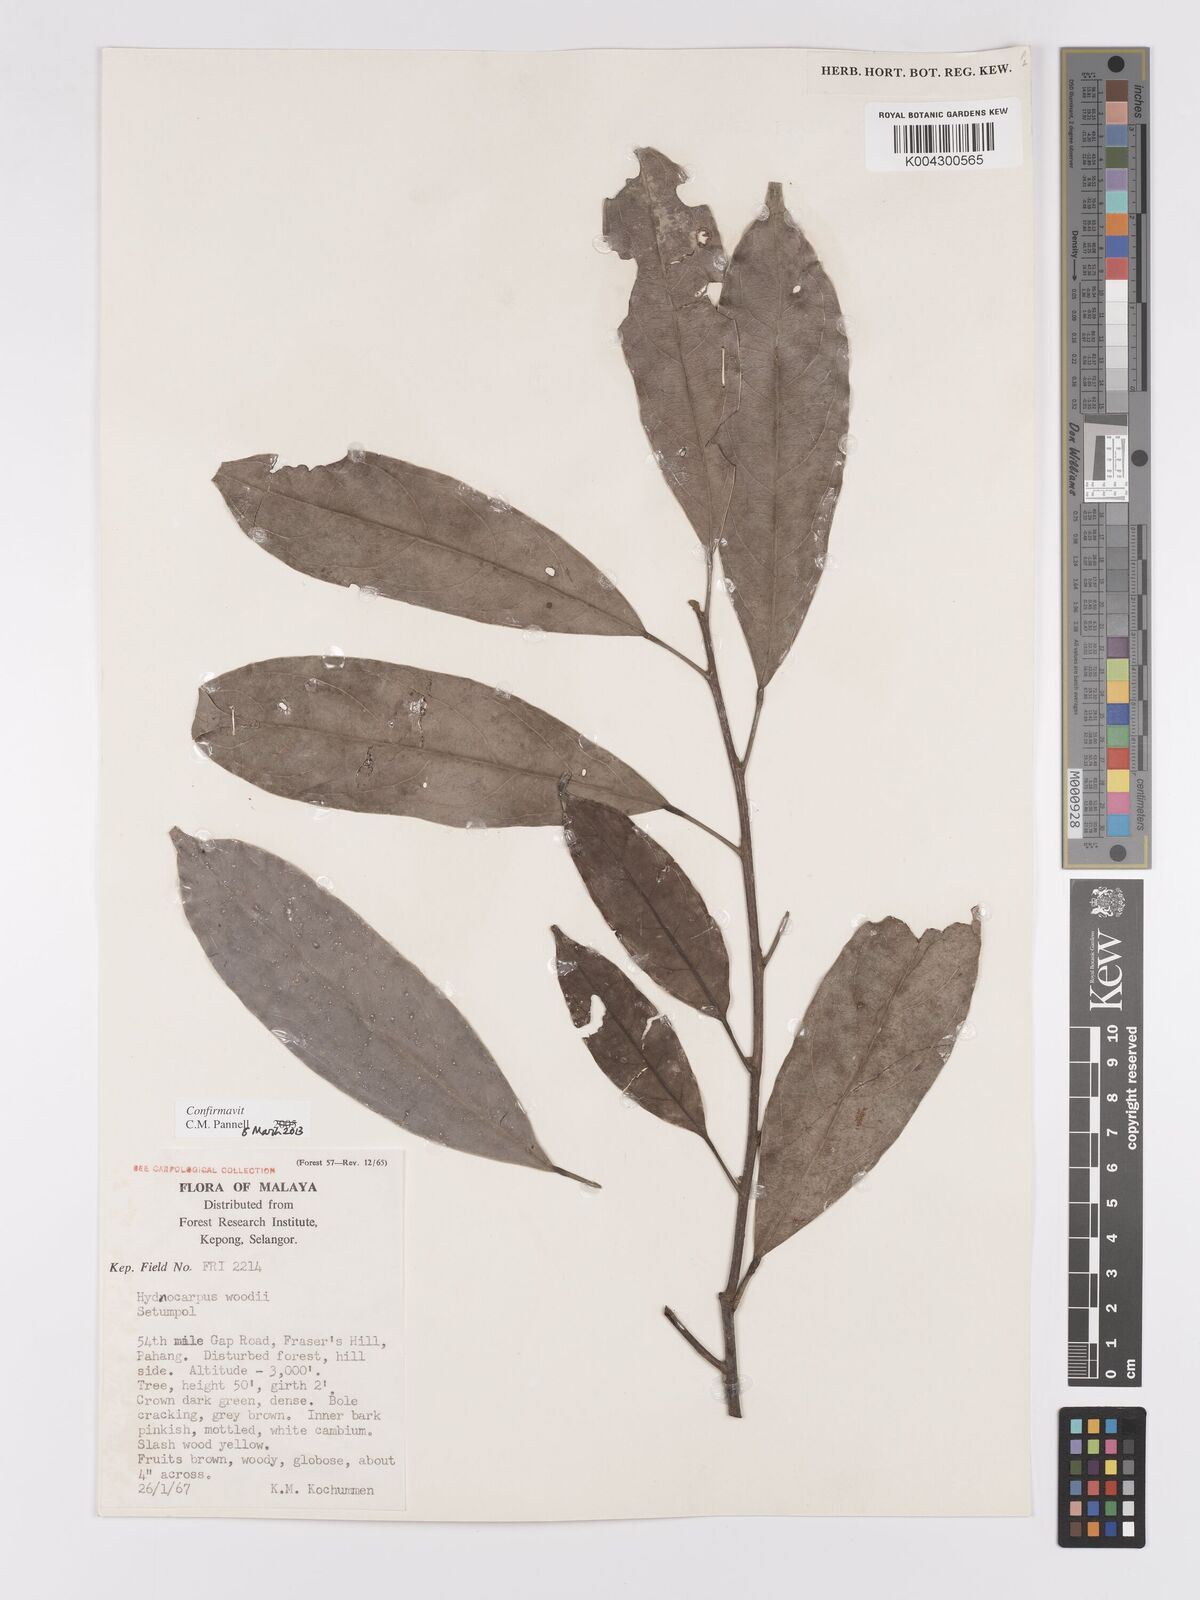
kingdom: Plantae
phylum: Tracheophyta
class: Magnoliopsida
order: Malpighiales
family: Achariaceae
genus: Hydnocarpus
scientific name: Hydnocarpus woodii
